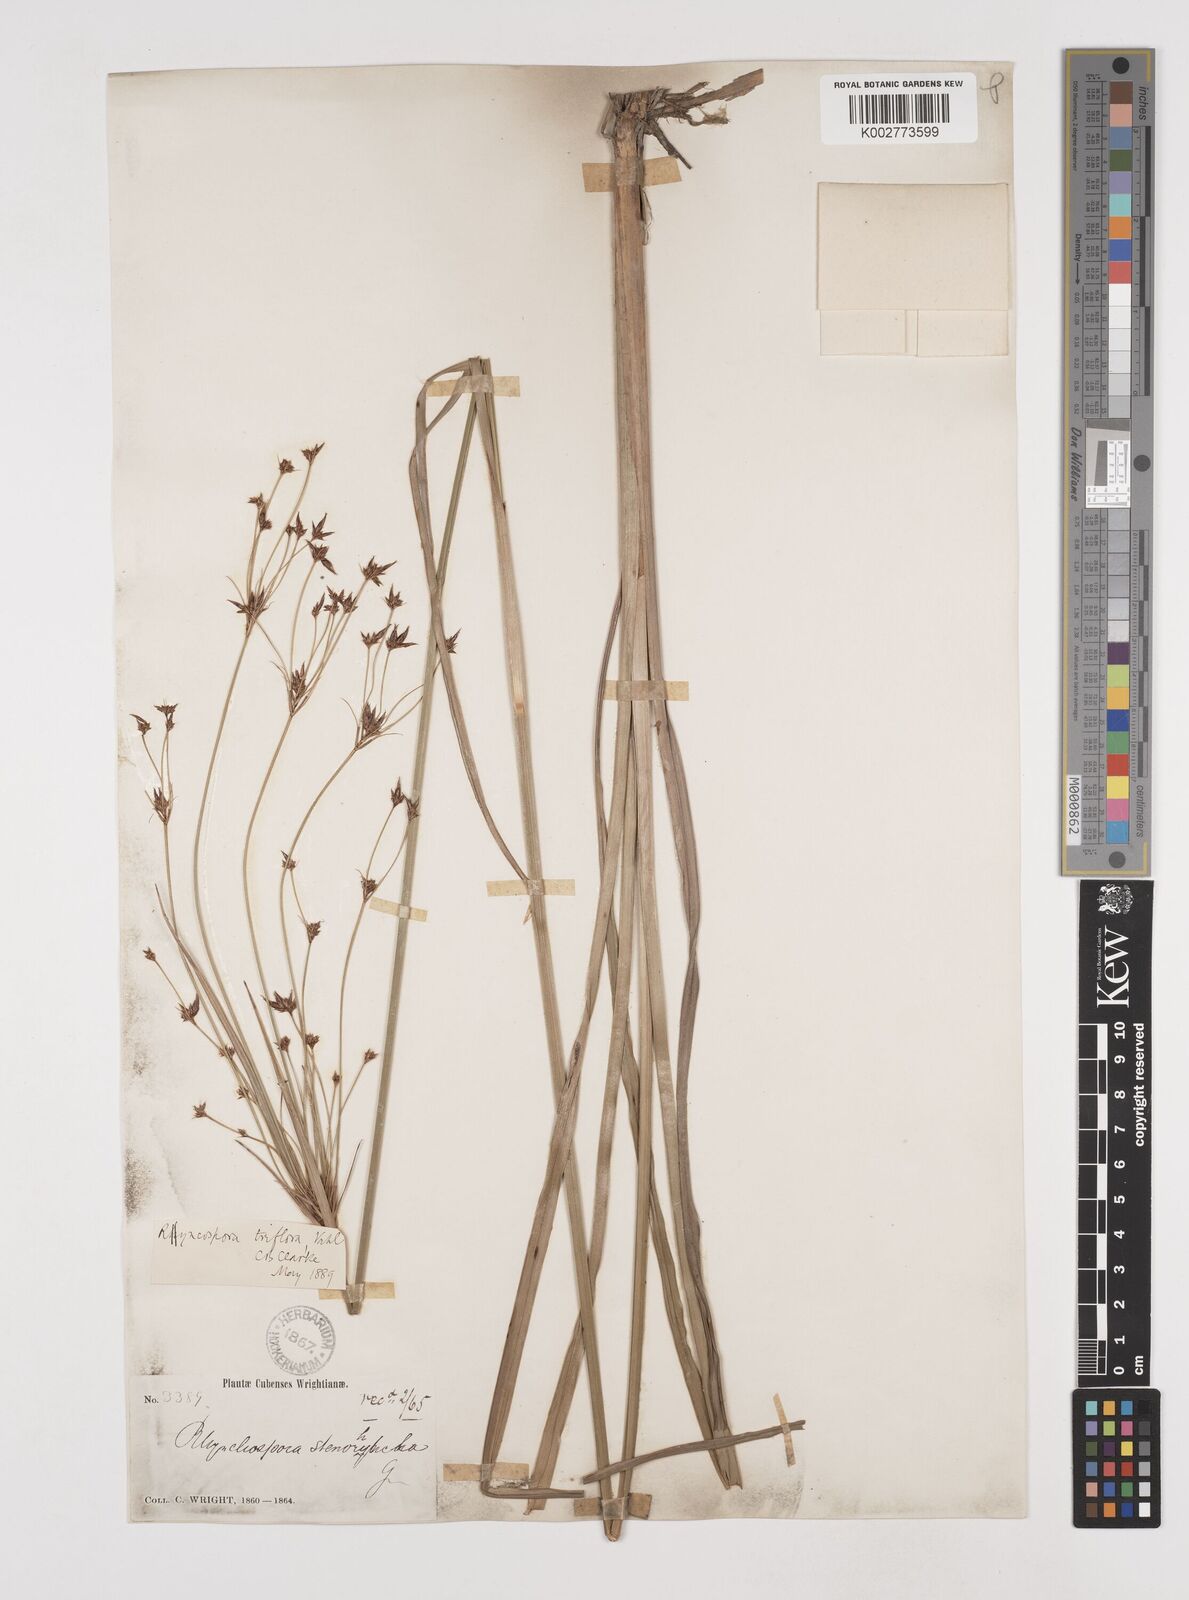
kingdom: Plantae
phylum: Tracheophyta
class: Liliopsida
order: Poales
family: Cyperaceae
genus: Rhynchospora
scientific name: Rhynchospora triflora
